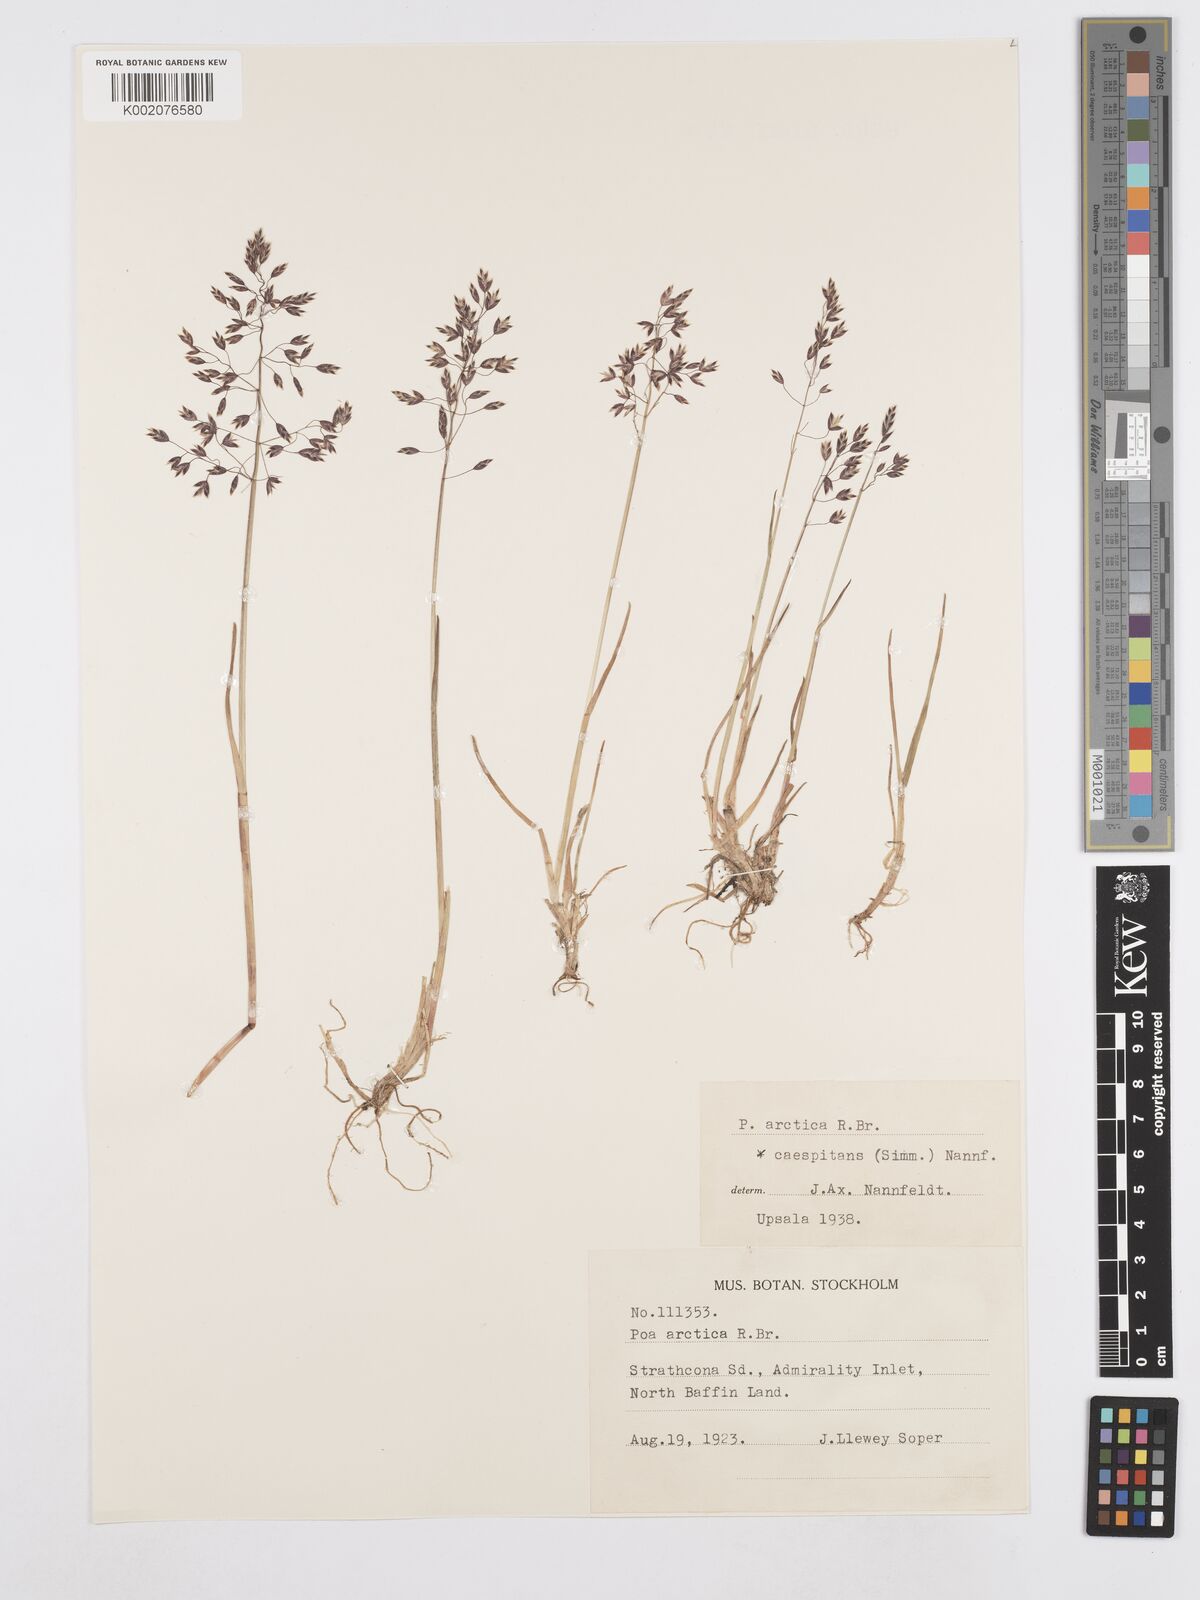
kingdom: Plantae
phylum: Tracheophyta
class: Liliopsida
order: Poales
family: Poaceae
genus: Poa
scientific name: Poa tolmatchewii
